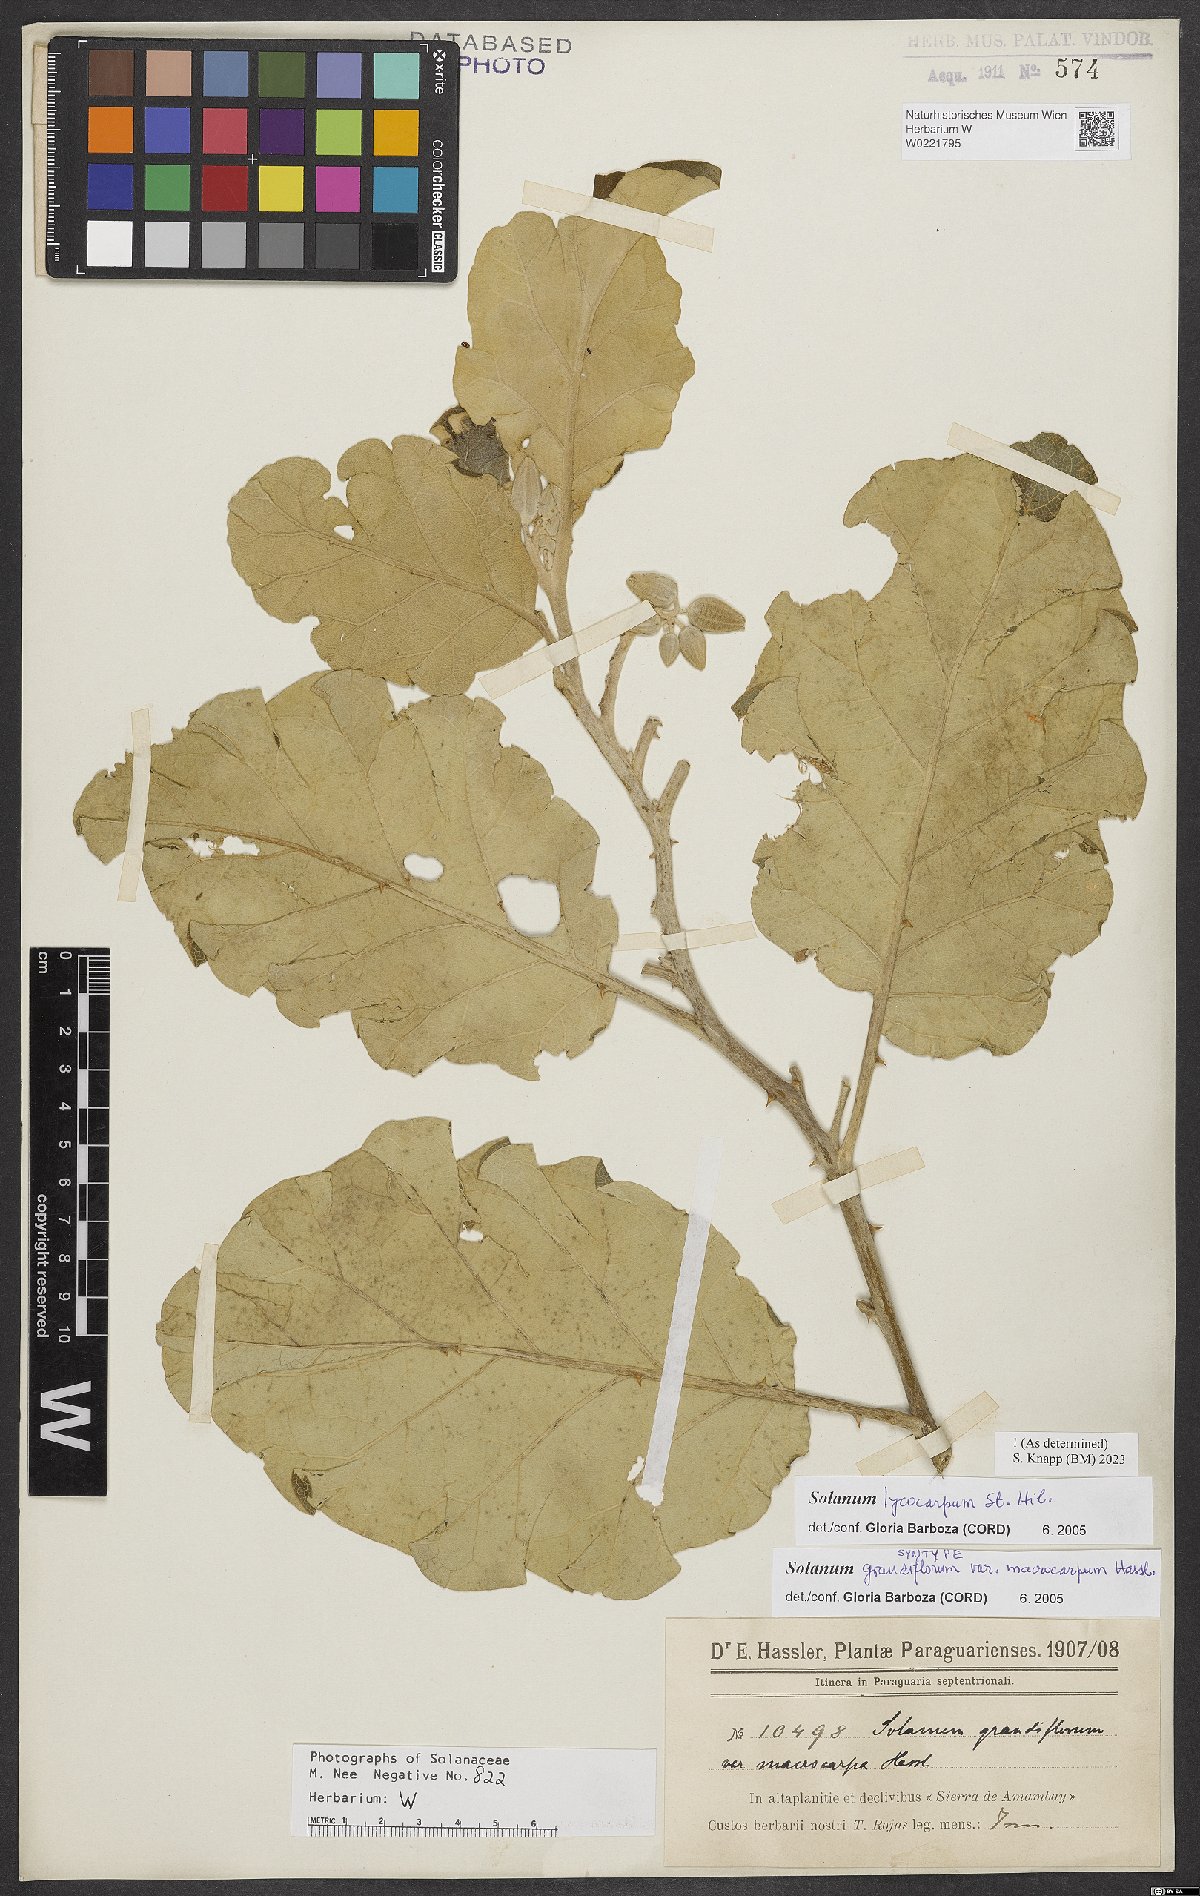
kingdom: Plantae
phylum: Tracheophyta
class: Magnoliopsida
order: Solanales
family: Solanaceae
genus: Solanum
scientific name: Solanum lycocarpum
